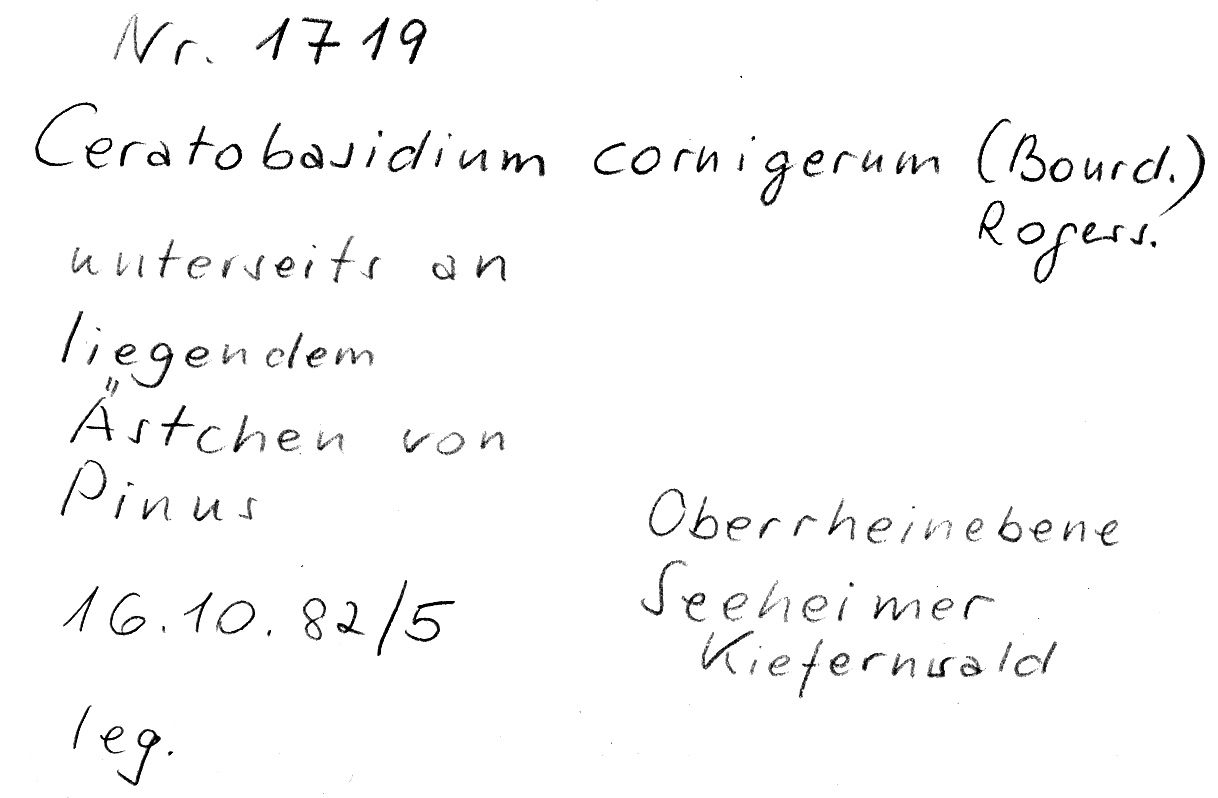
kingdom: Fungi
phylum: Basidiomycota
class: Agaricomycetes
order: Cantharellales
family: Ceratobasidiaceae
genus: Ceratobasidium
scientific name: Ceratobasidium cornigerum
